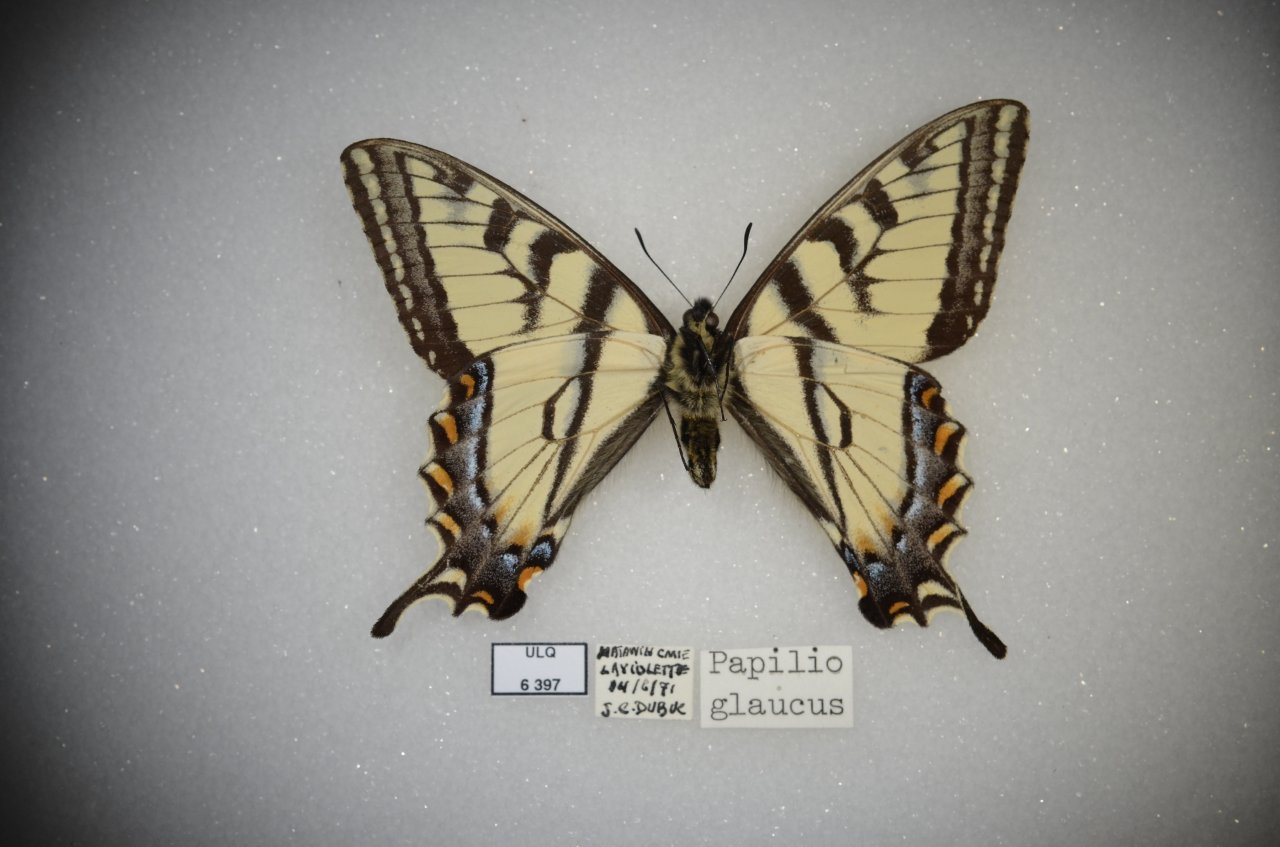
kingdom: Animalia
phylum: Arthropoda
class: Insecta
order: Lepidoptera
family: Papilionidae
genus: Pterourus
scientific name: Pterourus canadensis
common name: Canadian Tiger Swallowtail
